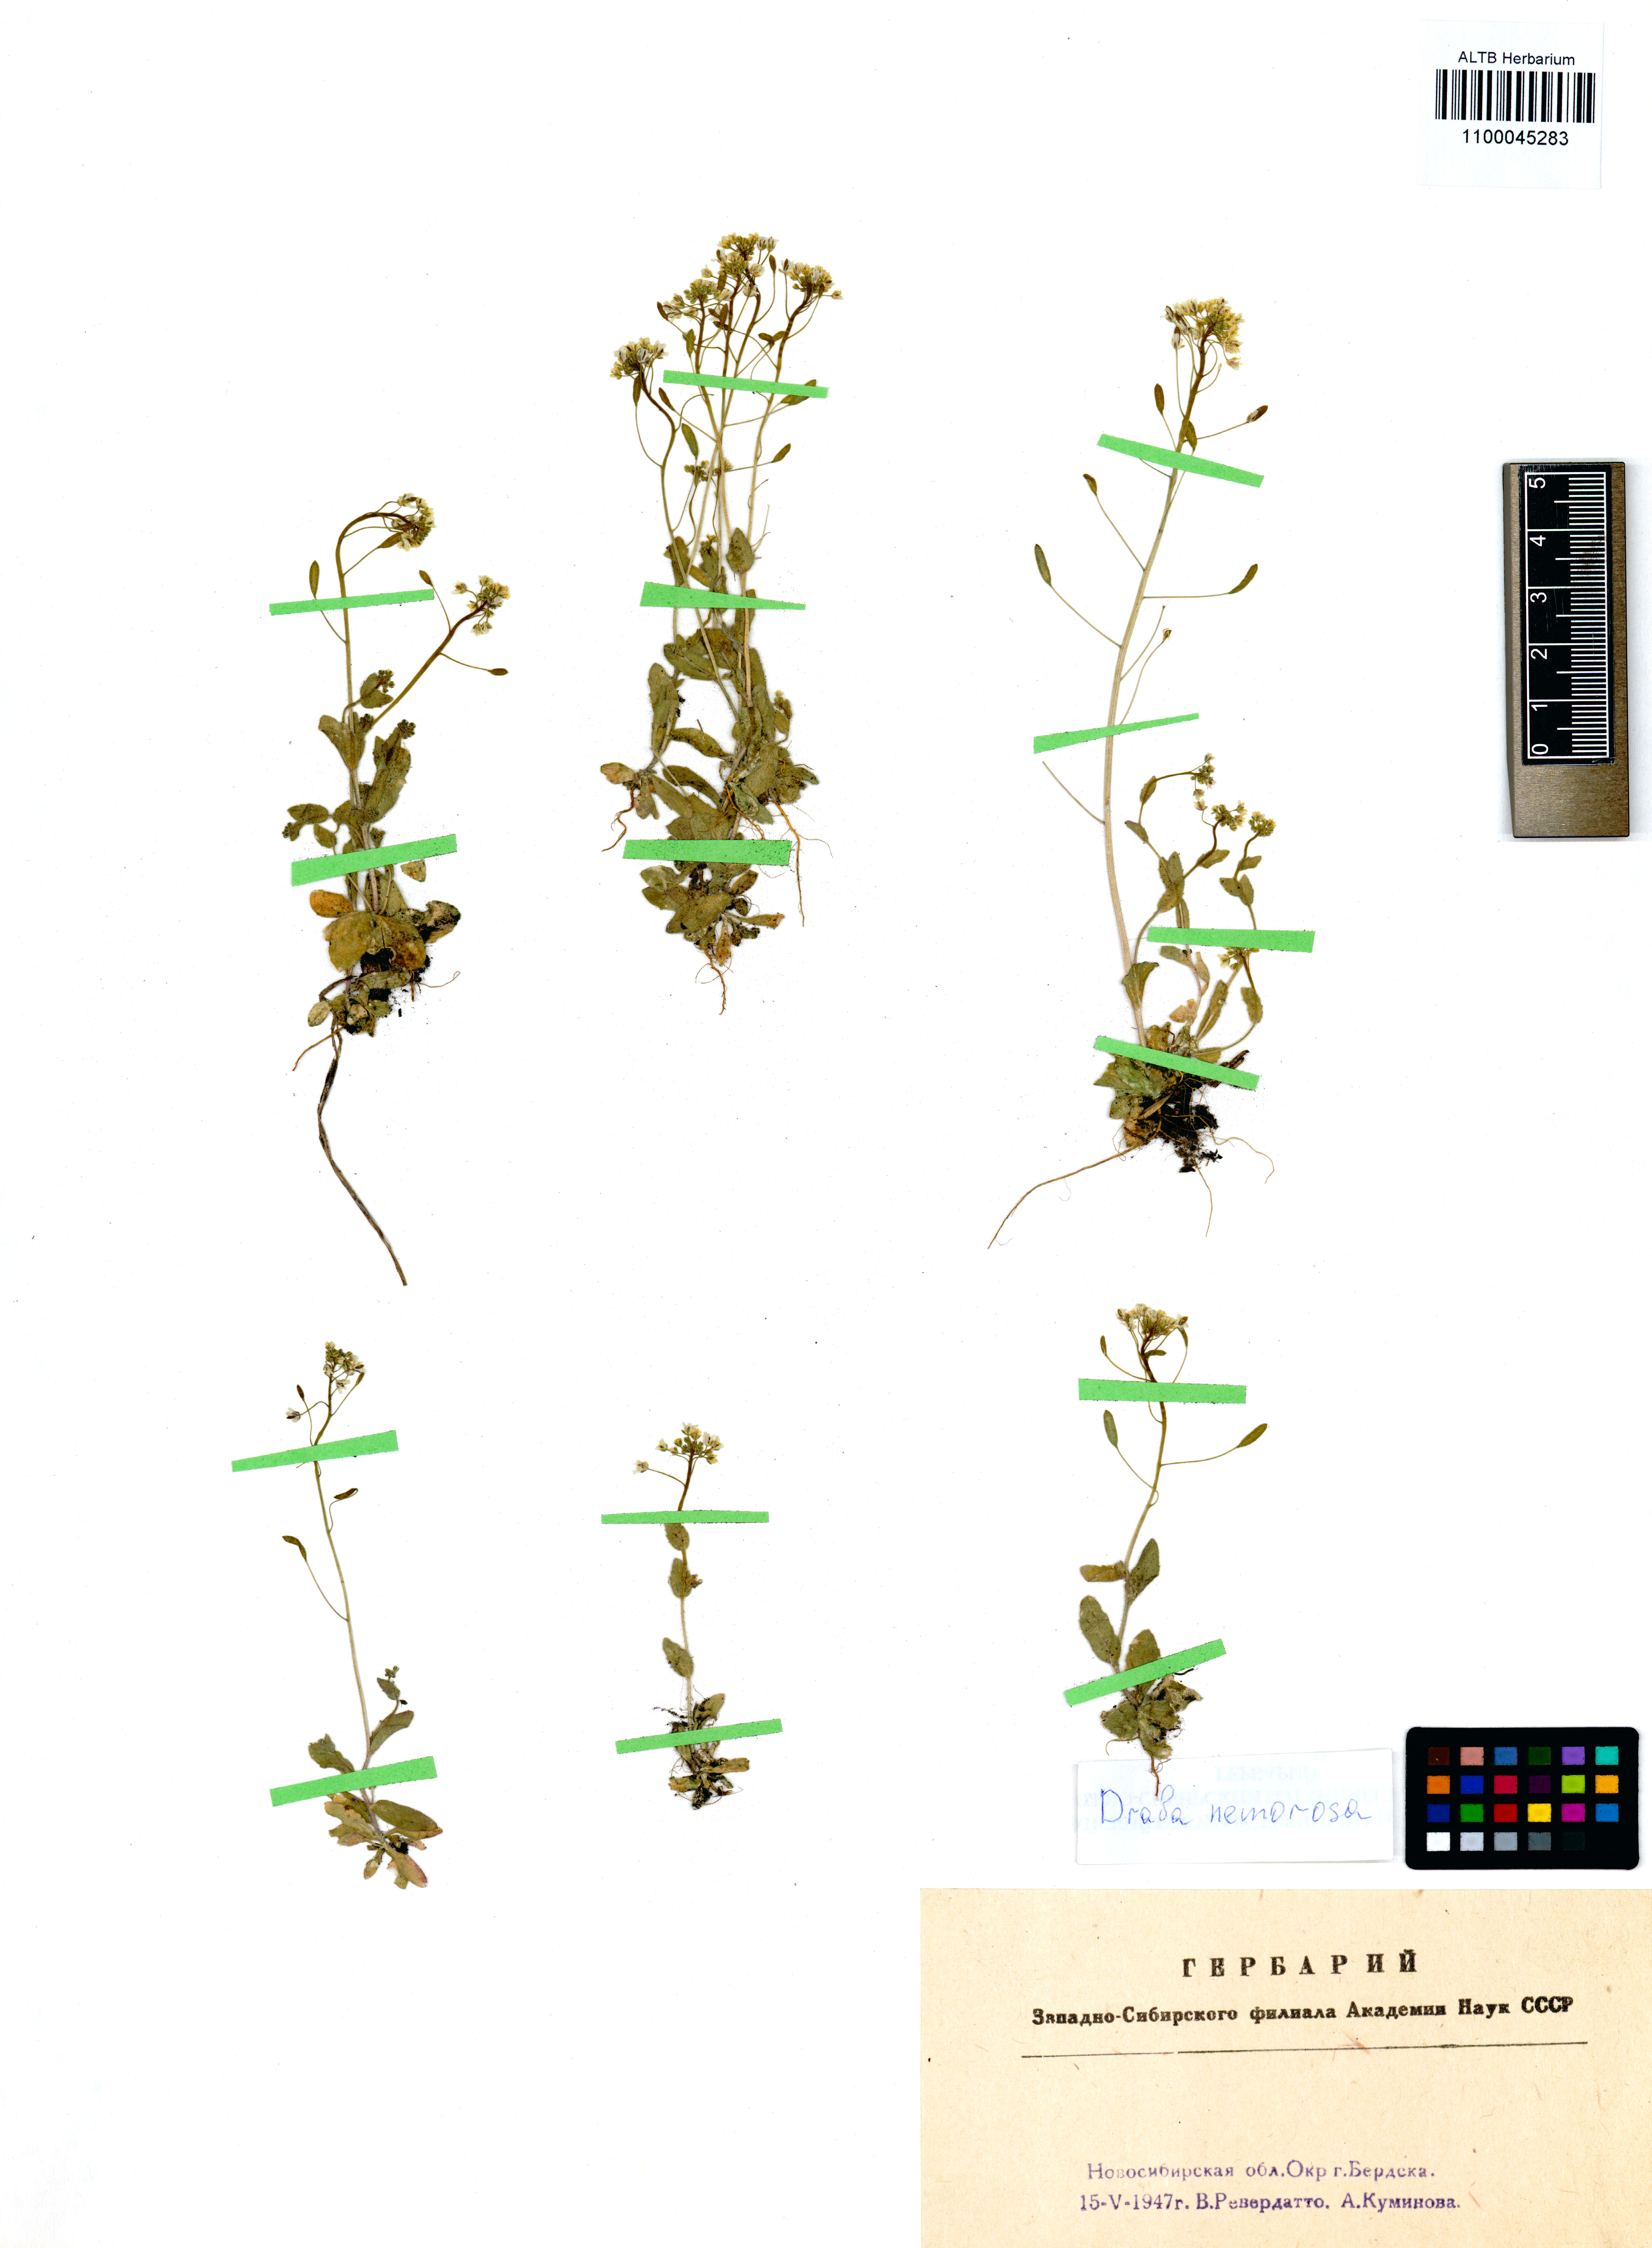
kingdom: Plantae
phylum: Tracheophyta
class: Magnoliopsida
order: Brassicales
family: Brassicaceae
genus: Draba
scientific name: Draba nemorosa
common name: Wood whitlow-grass
